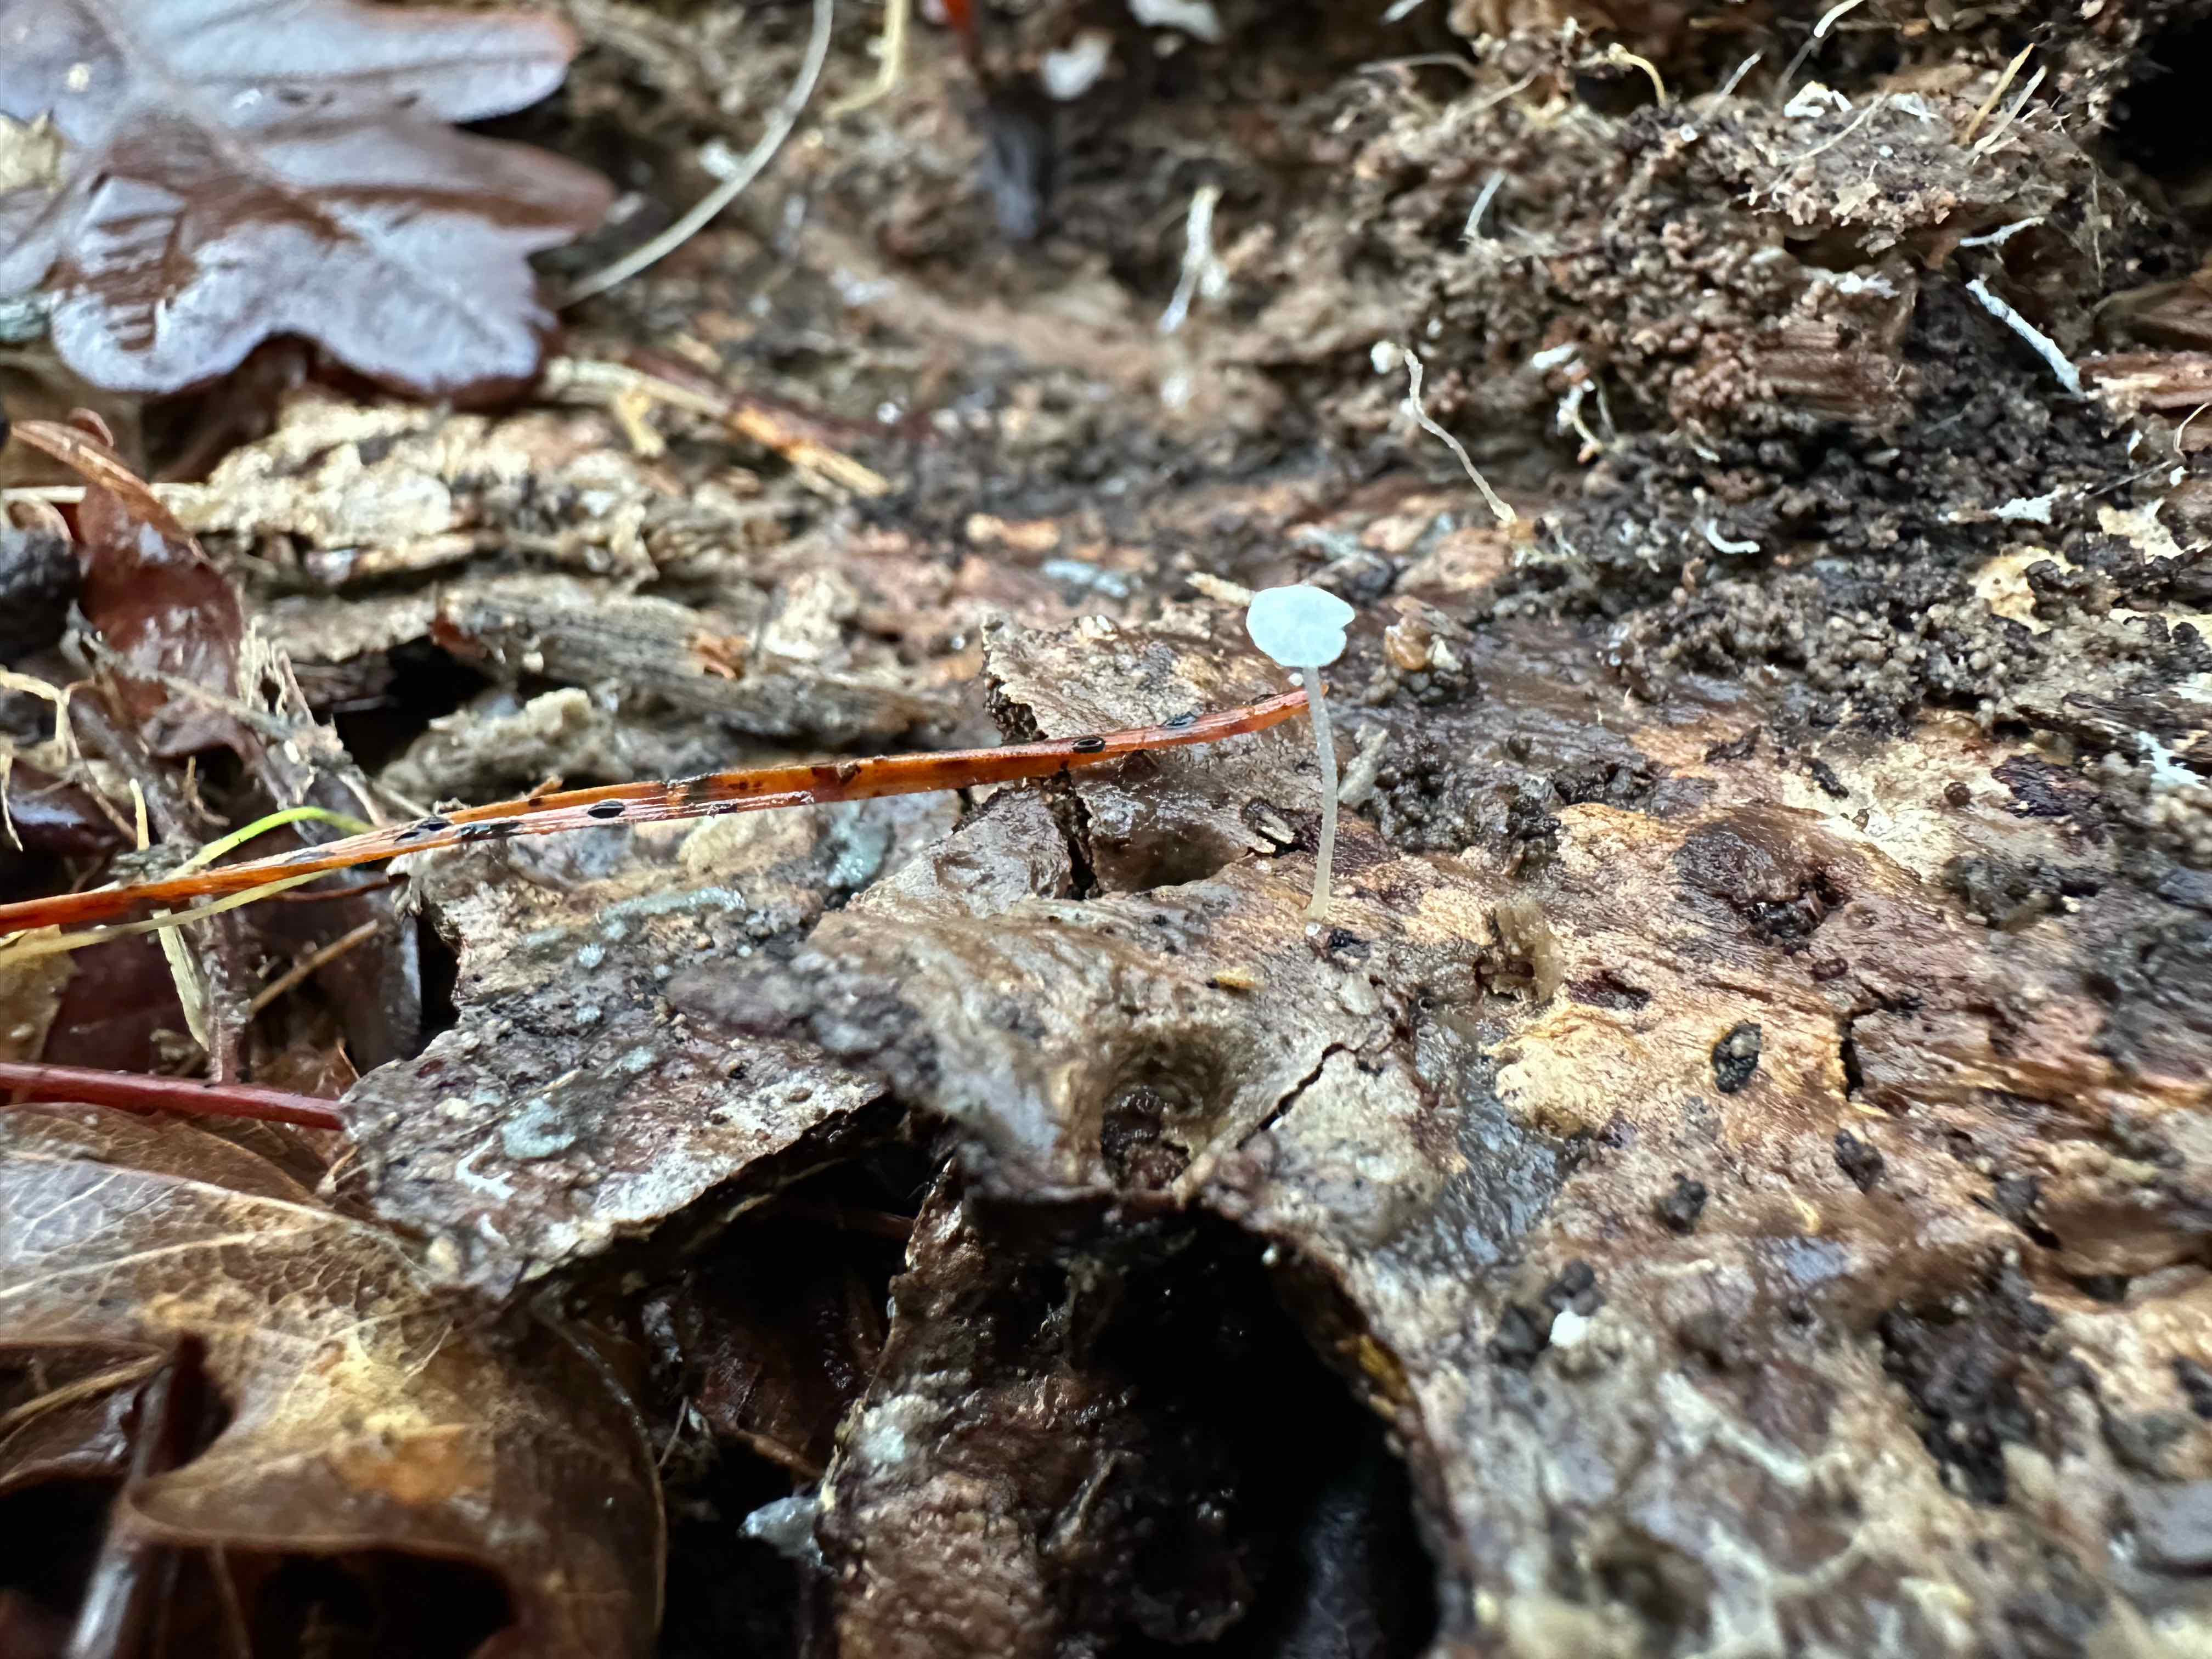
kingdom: Fungi
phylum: Basidiomycota
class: Agaricomycetes
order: Agaricales
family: Porotheleaceae
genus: Phloeomana
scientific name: Phloeomana speirea
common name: kvist-huesvamp
